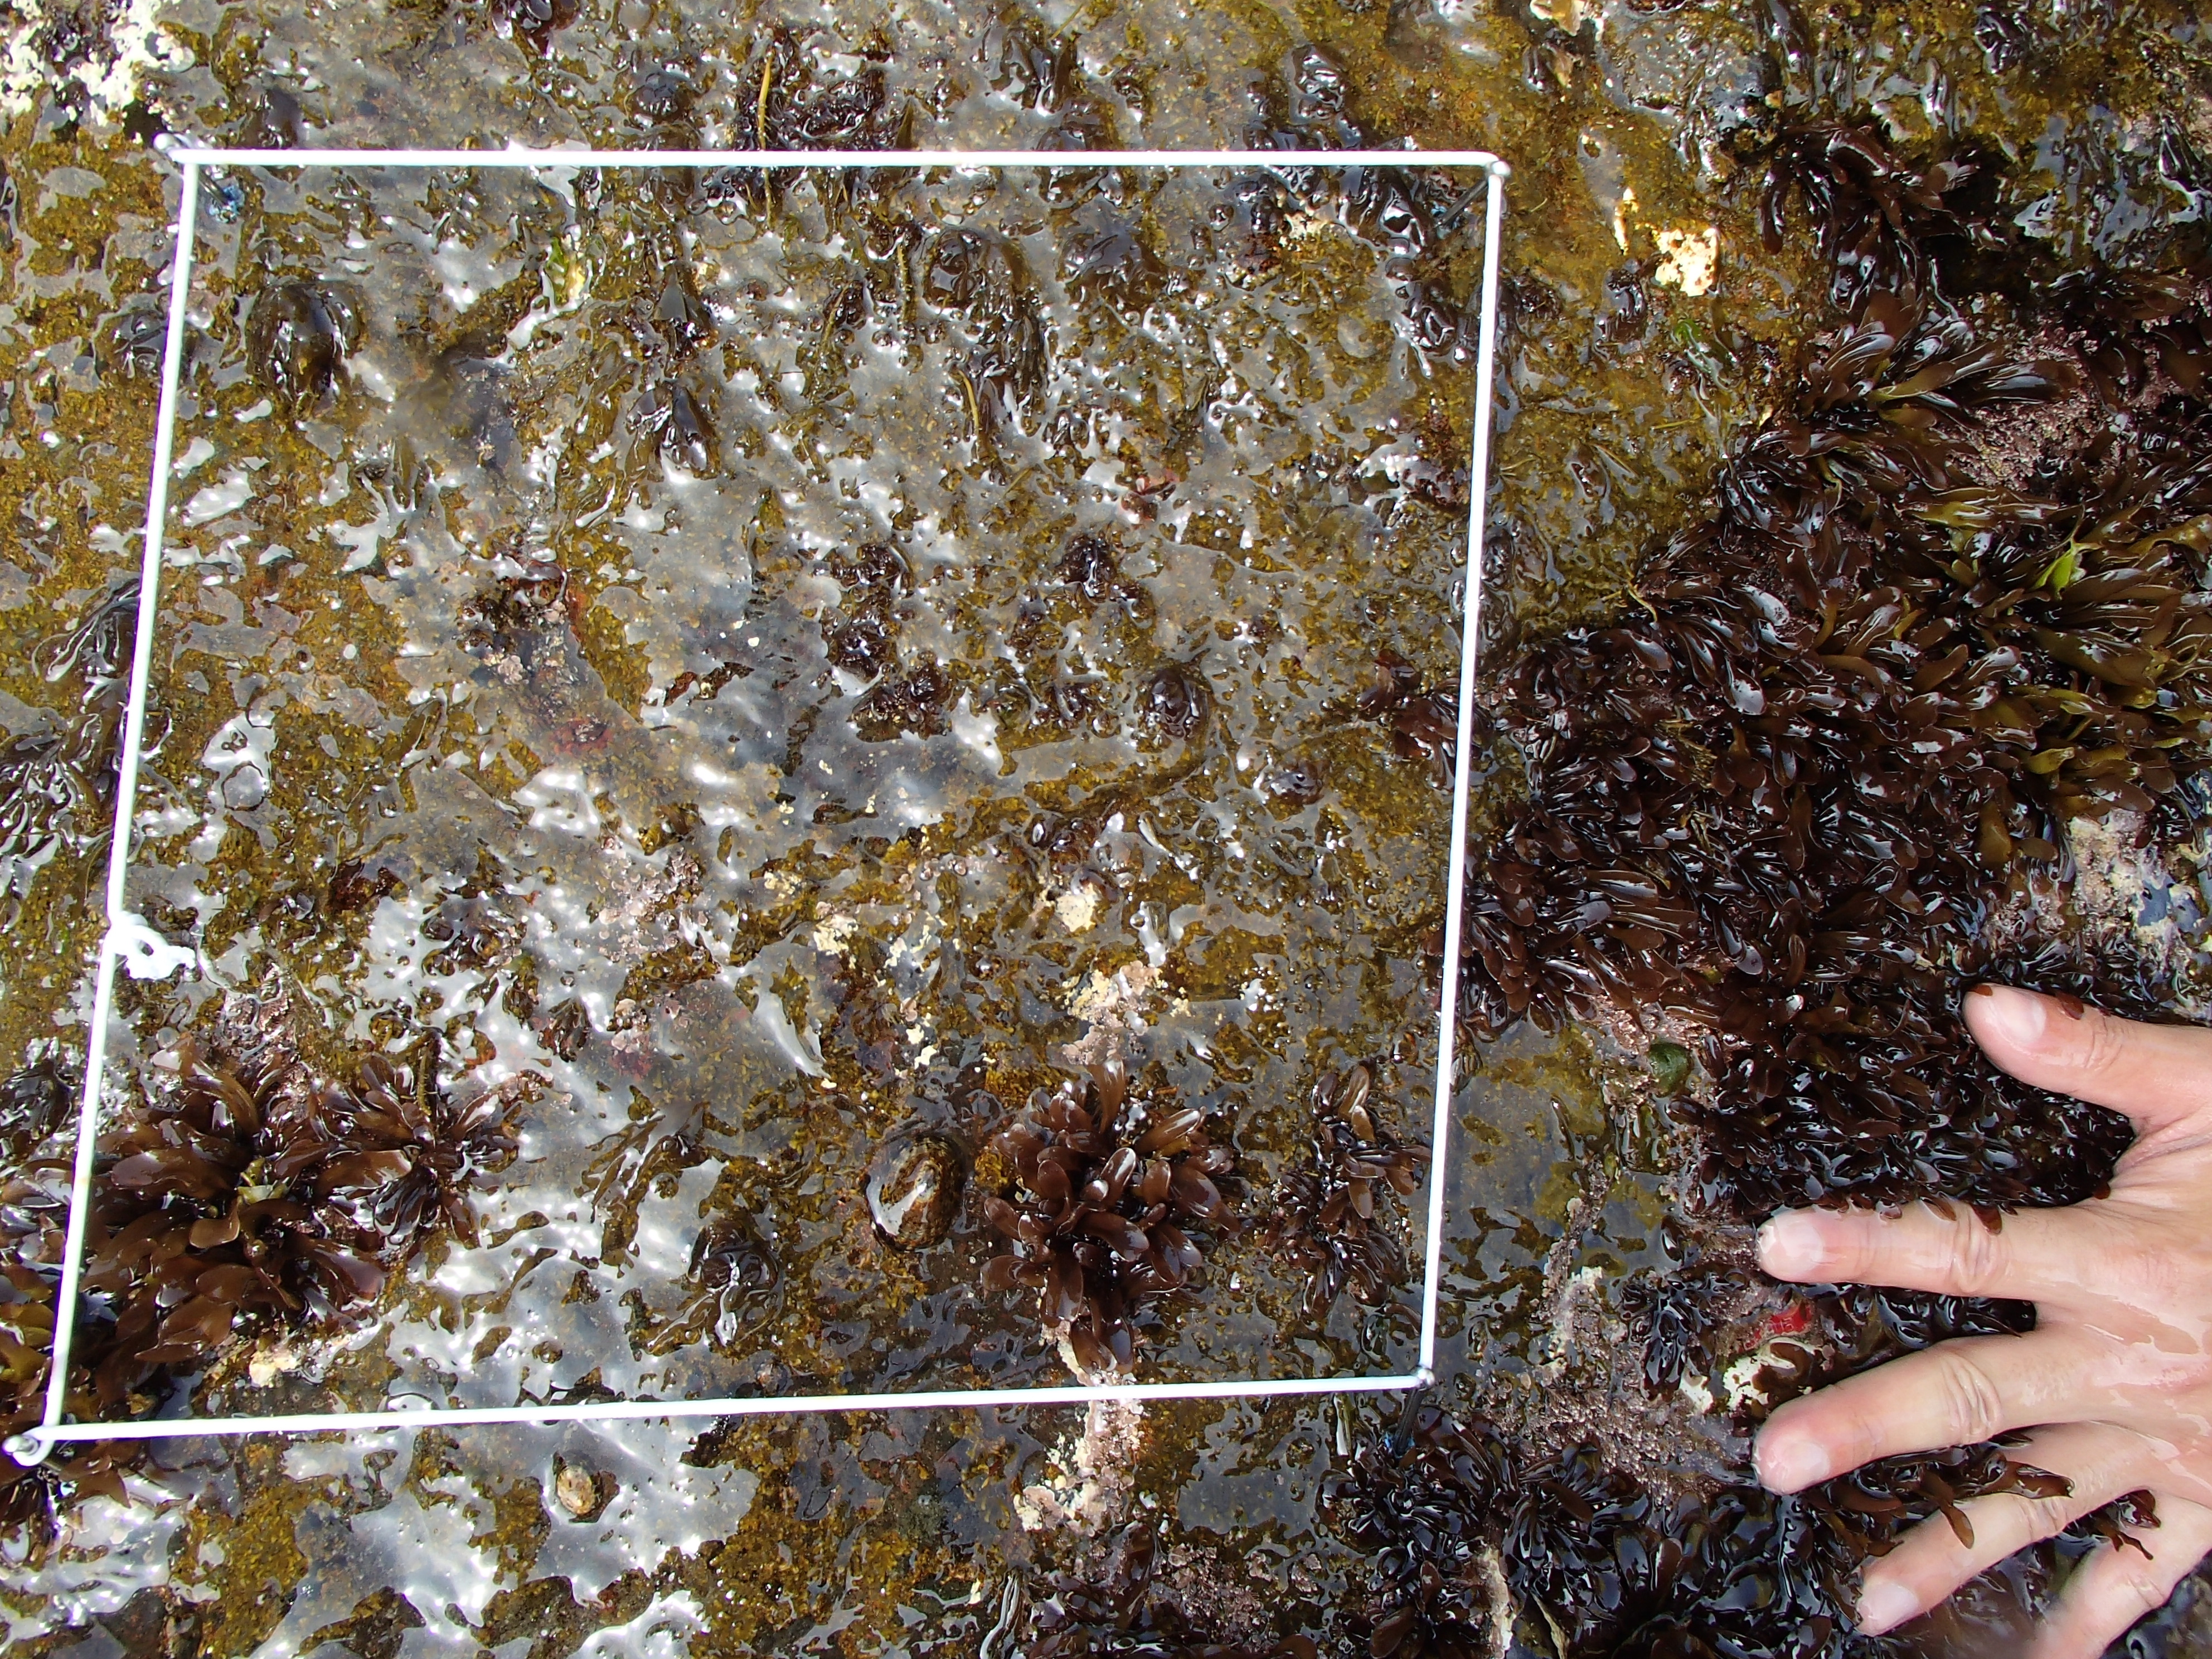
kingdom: Plantae
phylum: Rhodophyta
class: Florideophyceae
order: Corallinales
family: Corallinaceae
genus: Corallina
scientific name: Corallina pilulifera
